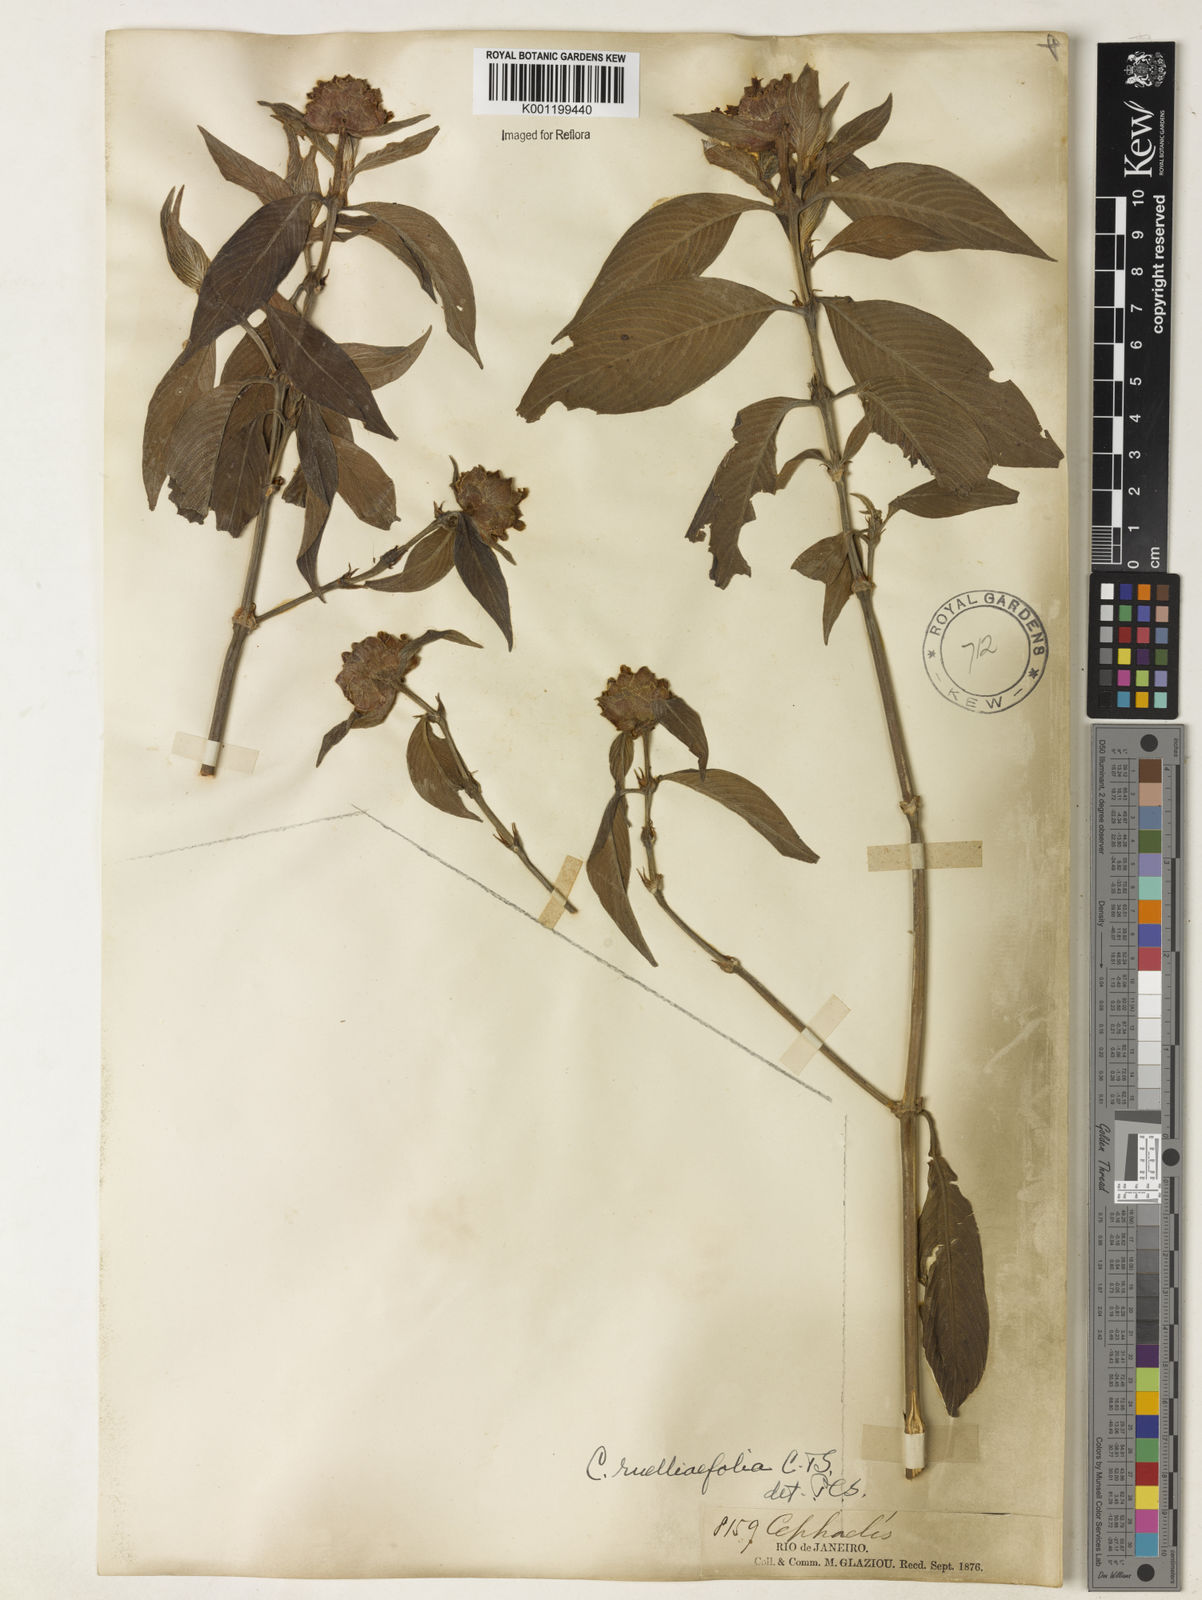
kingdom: Plantae
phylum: Tracheophyta
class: Magnoliopsida
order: Gentianales
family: Rubiaceae
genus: Psychotria
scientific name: Psychotria
